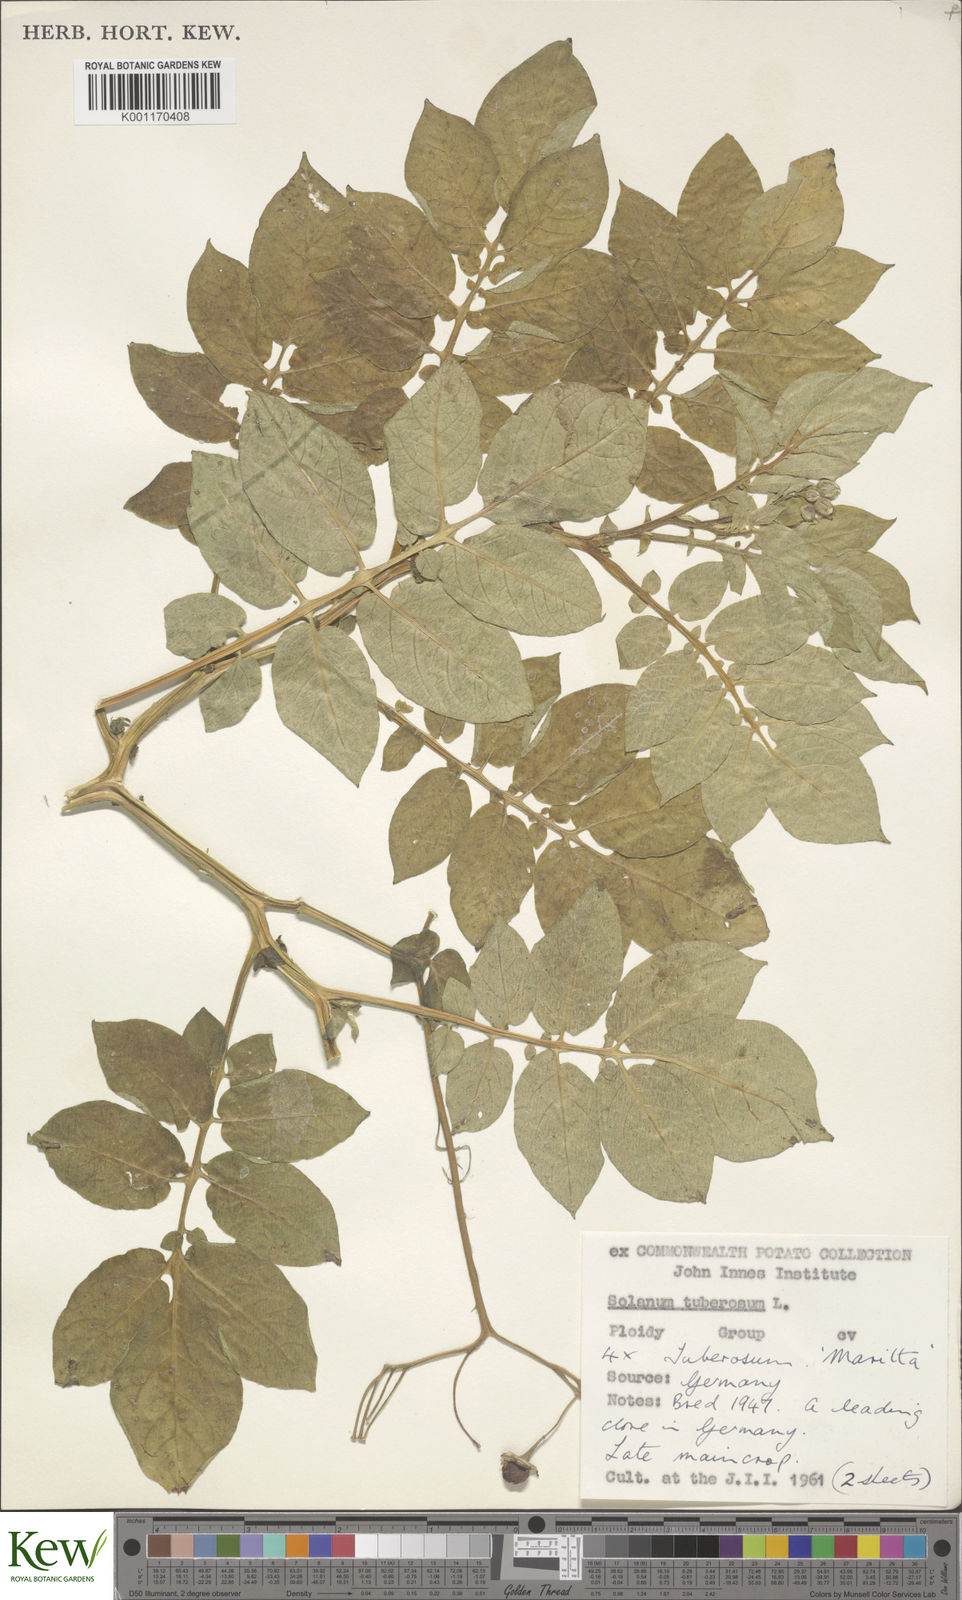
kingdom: Plantae
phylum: Tracheophyta
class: Magnoliopsida
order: Solanales
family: Solanaceae
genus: Solanum
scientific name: Solanum tuberosum
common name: Potato
